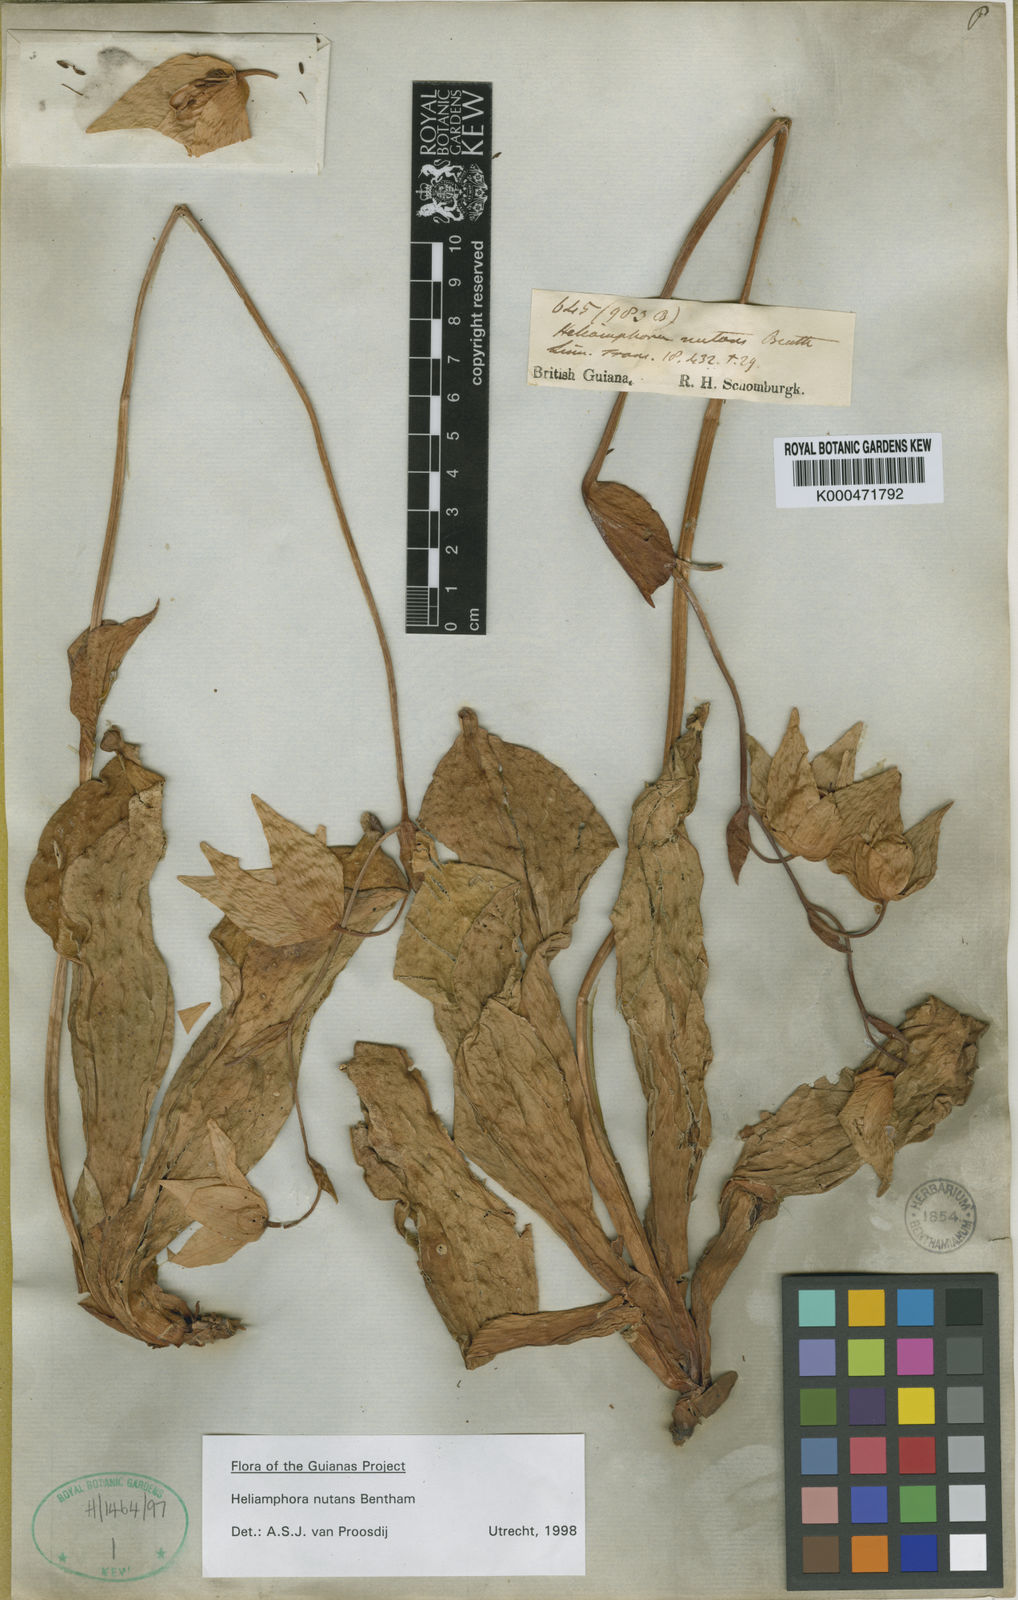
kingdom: Plantae
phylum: Tracheophyta
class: Magnoliopsida
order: Ericales
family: Sarraceniaceae
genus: Heliamphora
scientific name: Heliamphora nutans
